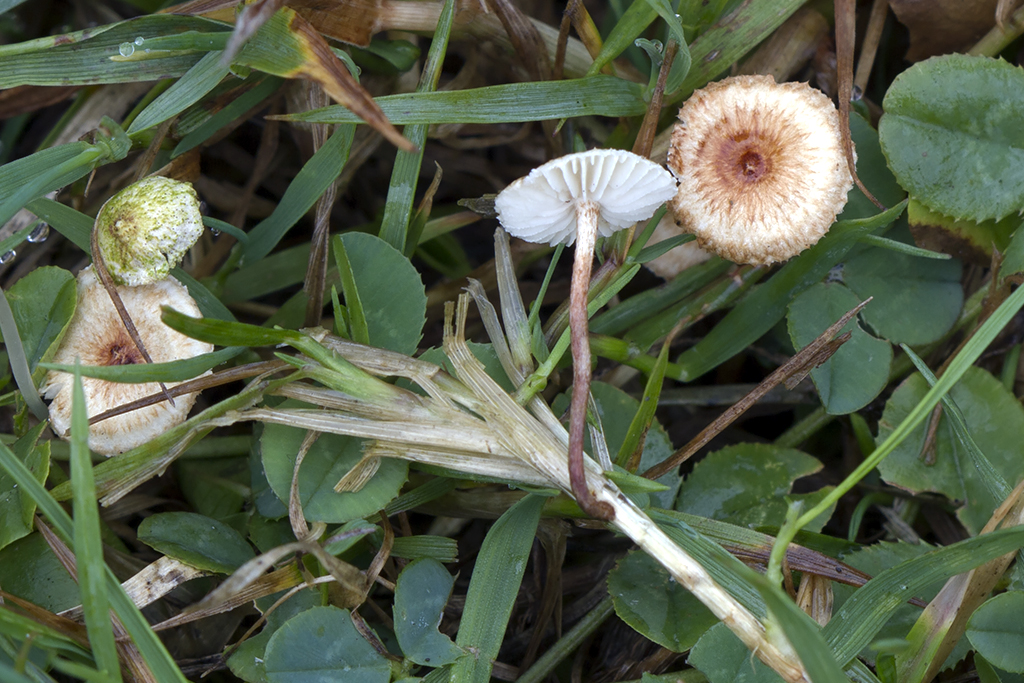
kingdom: Fungi
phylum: Basidiomycota
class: Agaricomycetes
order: Agaricales
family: Marasmiaceae
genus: Crinipellis
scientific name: Crinipellis scabella
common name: børstefod
